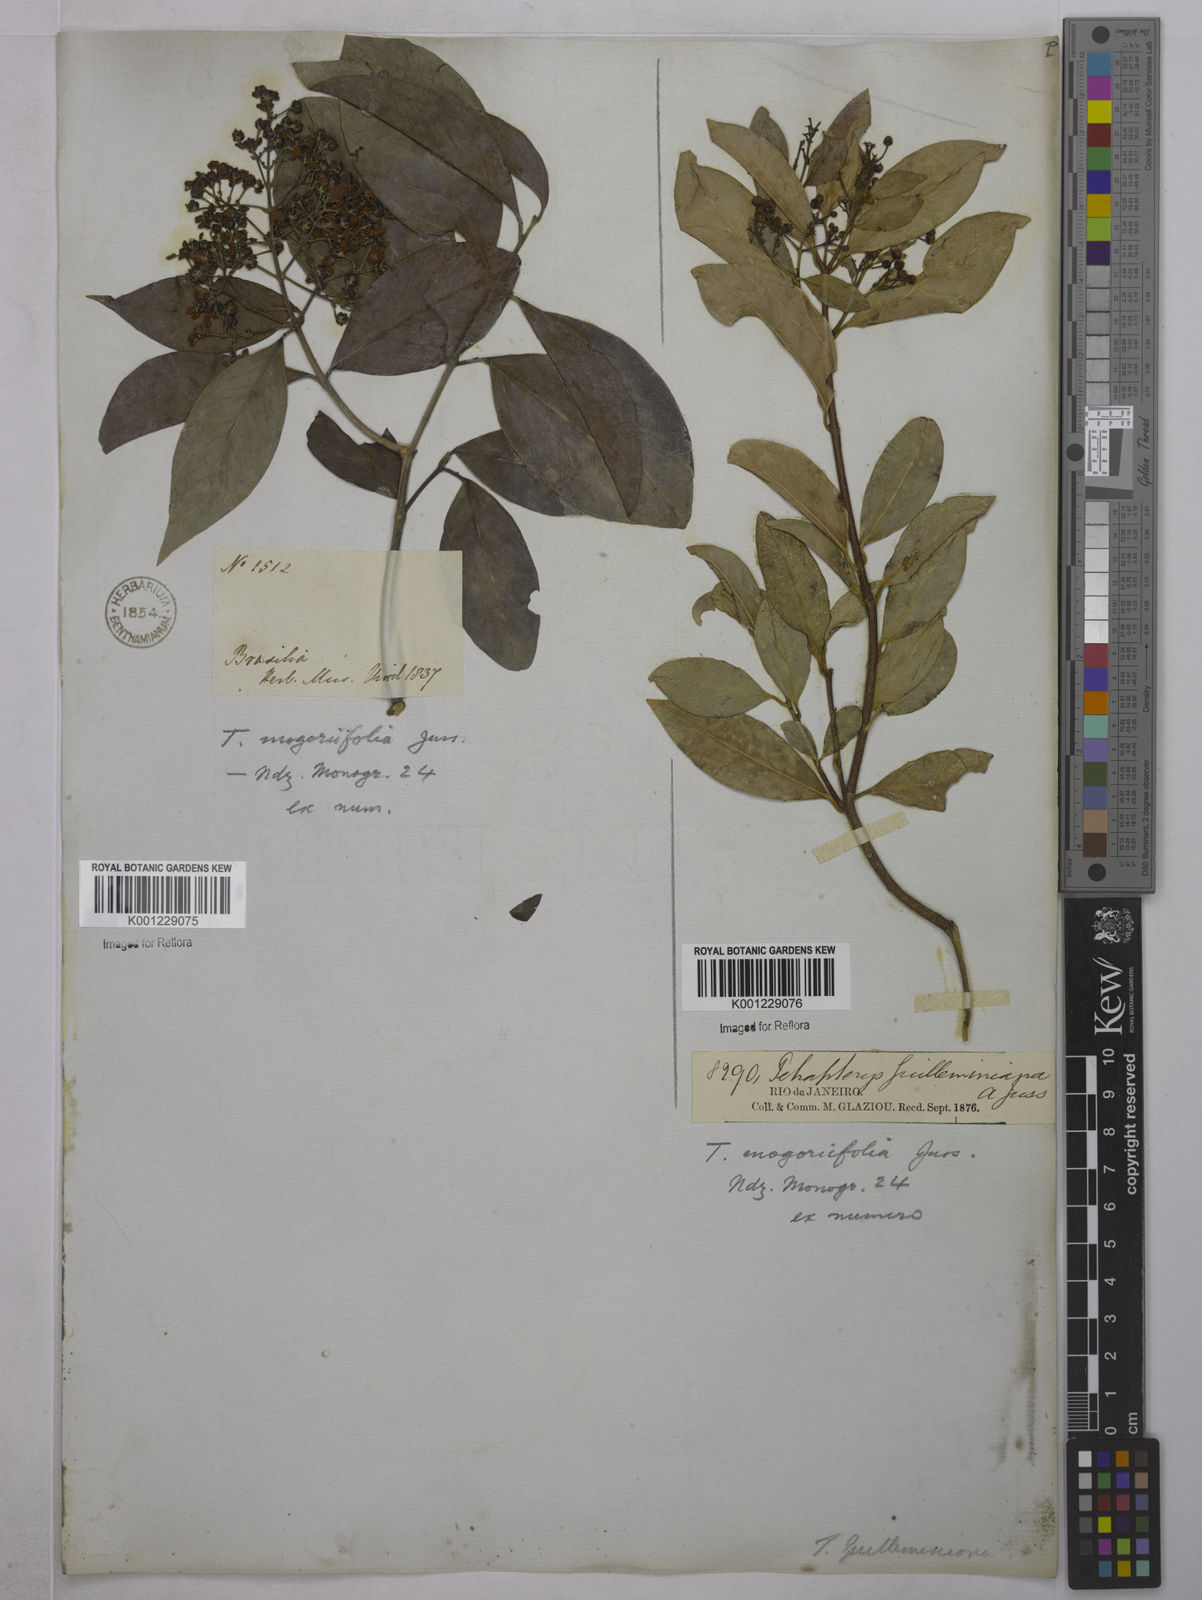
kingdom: Plantae
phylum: Tracheophyta
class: Magnoliopsida
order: Malpighiales
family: Malpighiaceae
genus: Niedenzuella
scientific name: Niedenzuella mogoriifolia
